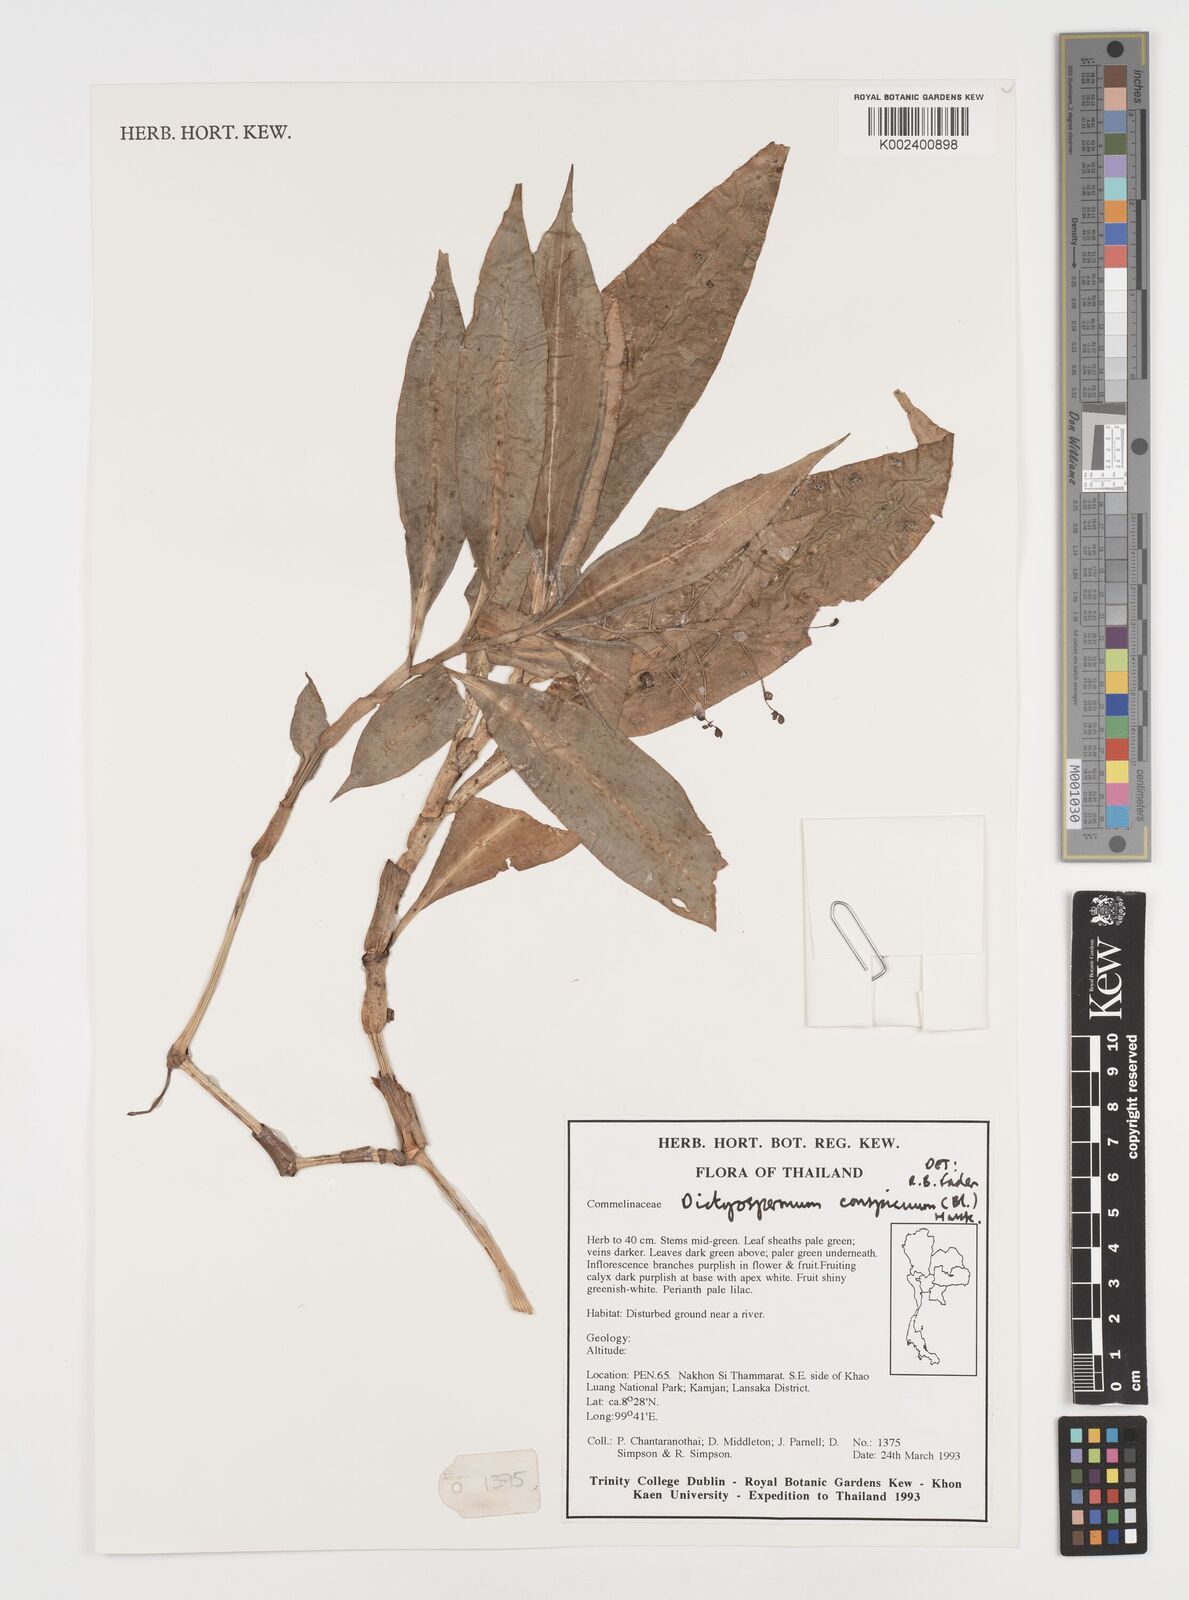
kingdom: Plantae
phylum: Tracheophyta
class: Liliopsida
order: Commelinales
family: Commelinaceae
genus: Dictyospermum
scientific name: Dictyospermum conspicuum
